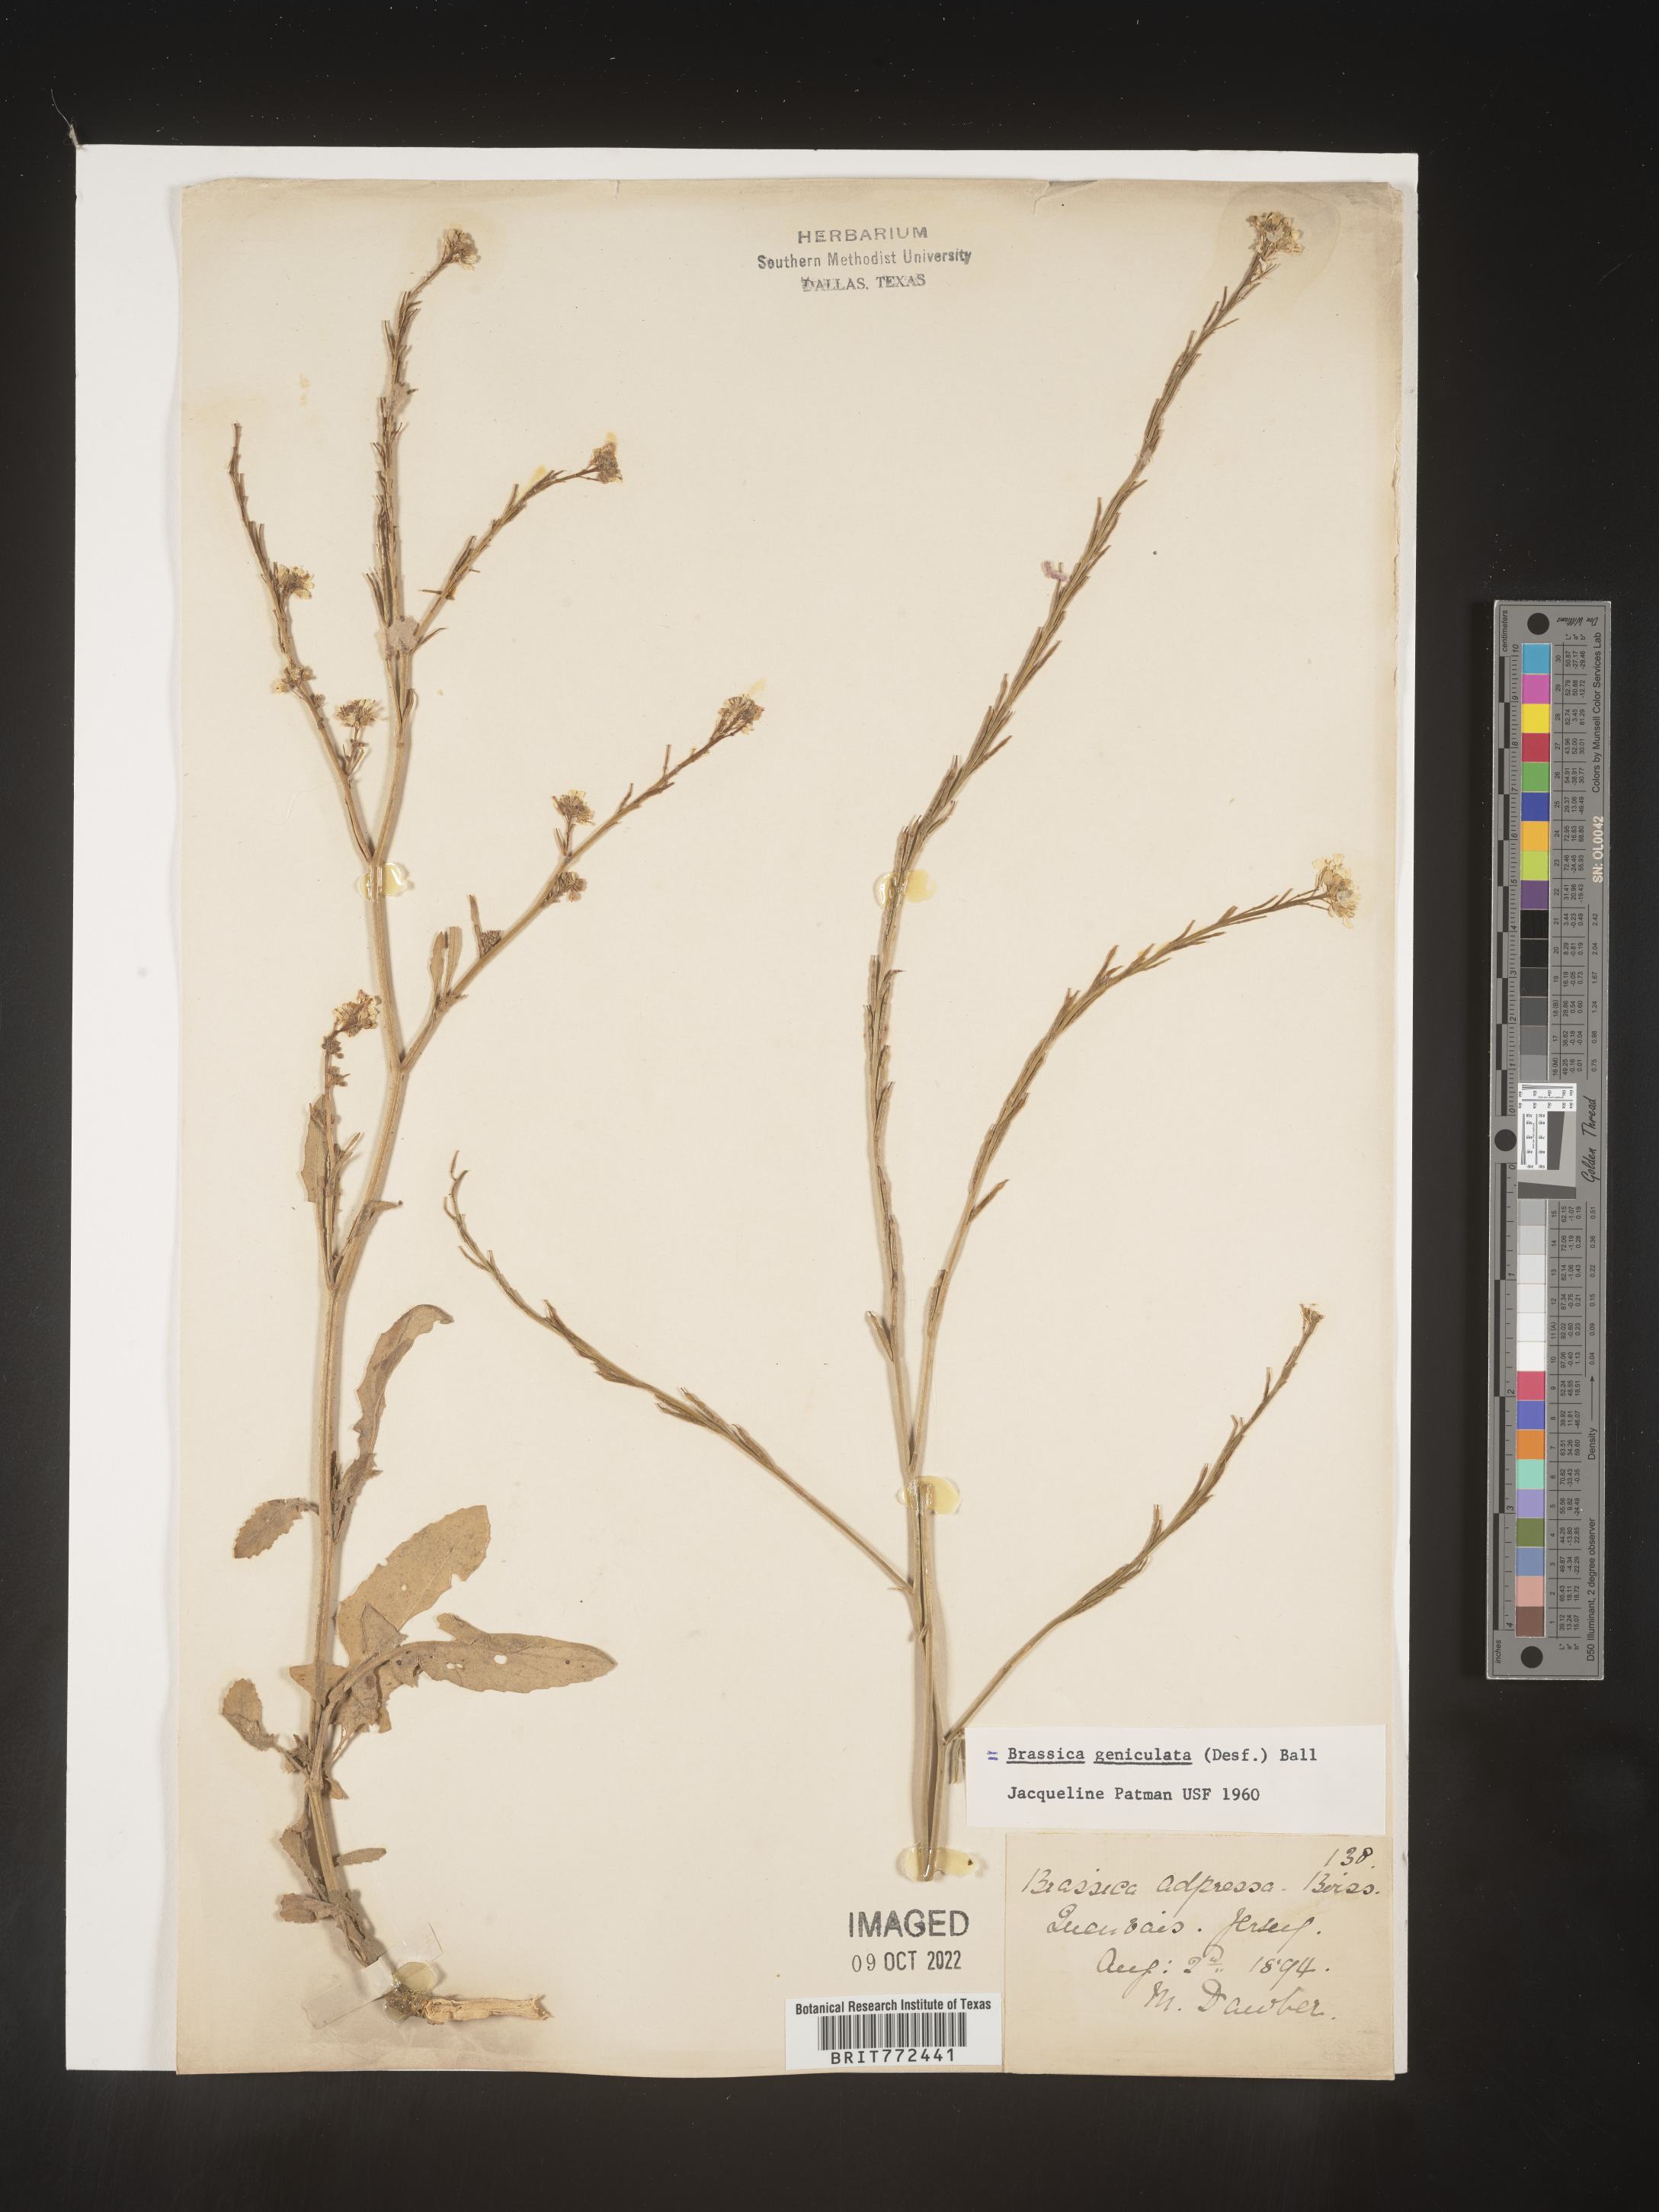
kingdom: Plantae
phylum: Tracheophyta
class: Magnoliopsida
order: Brassicales
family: Brassicaceae
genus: Brassica
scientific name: Brassica
